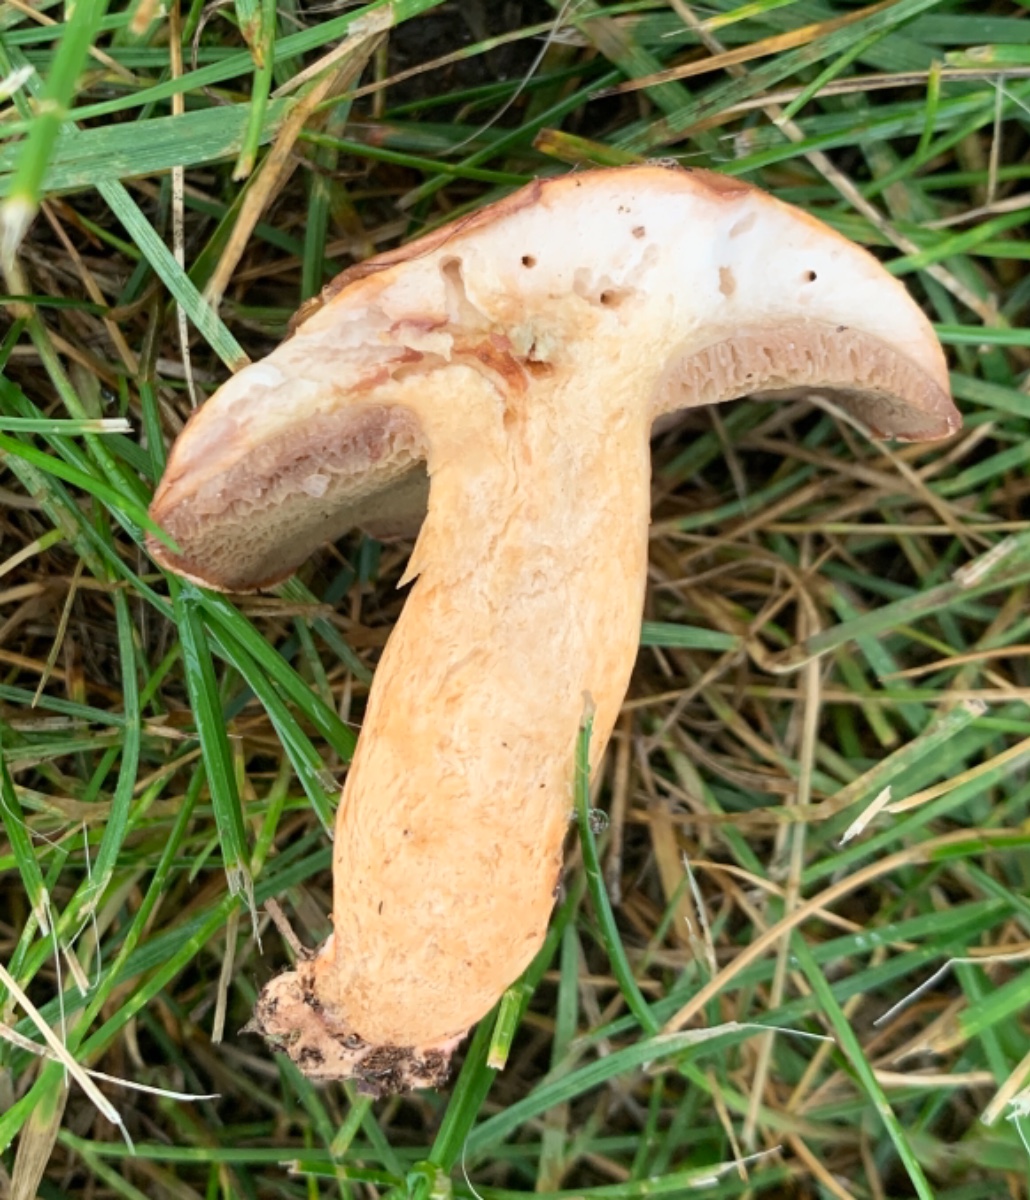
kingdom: Fungi
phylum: Basidiomycota
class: Agaricomycetes
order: Boletales
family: Suillaceae
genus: Suillus
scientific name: Suillus bovinus
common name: grovporet slimrørhat
